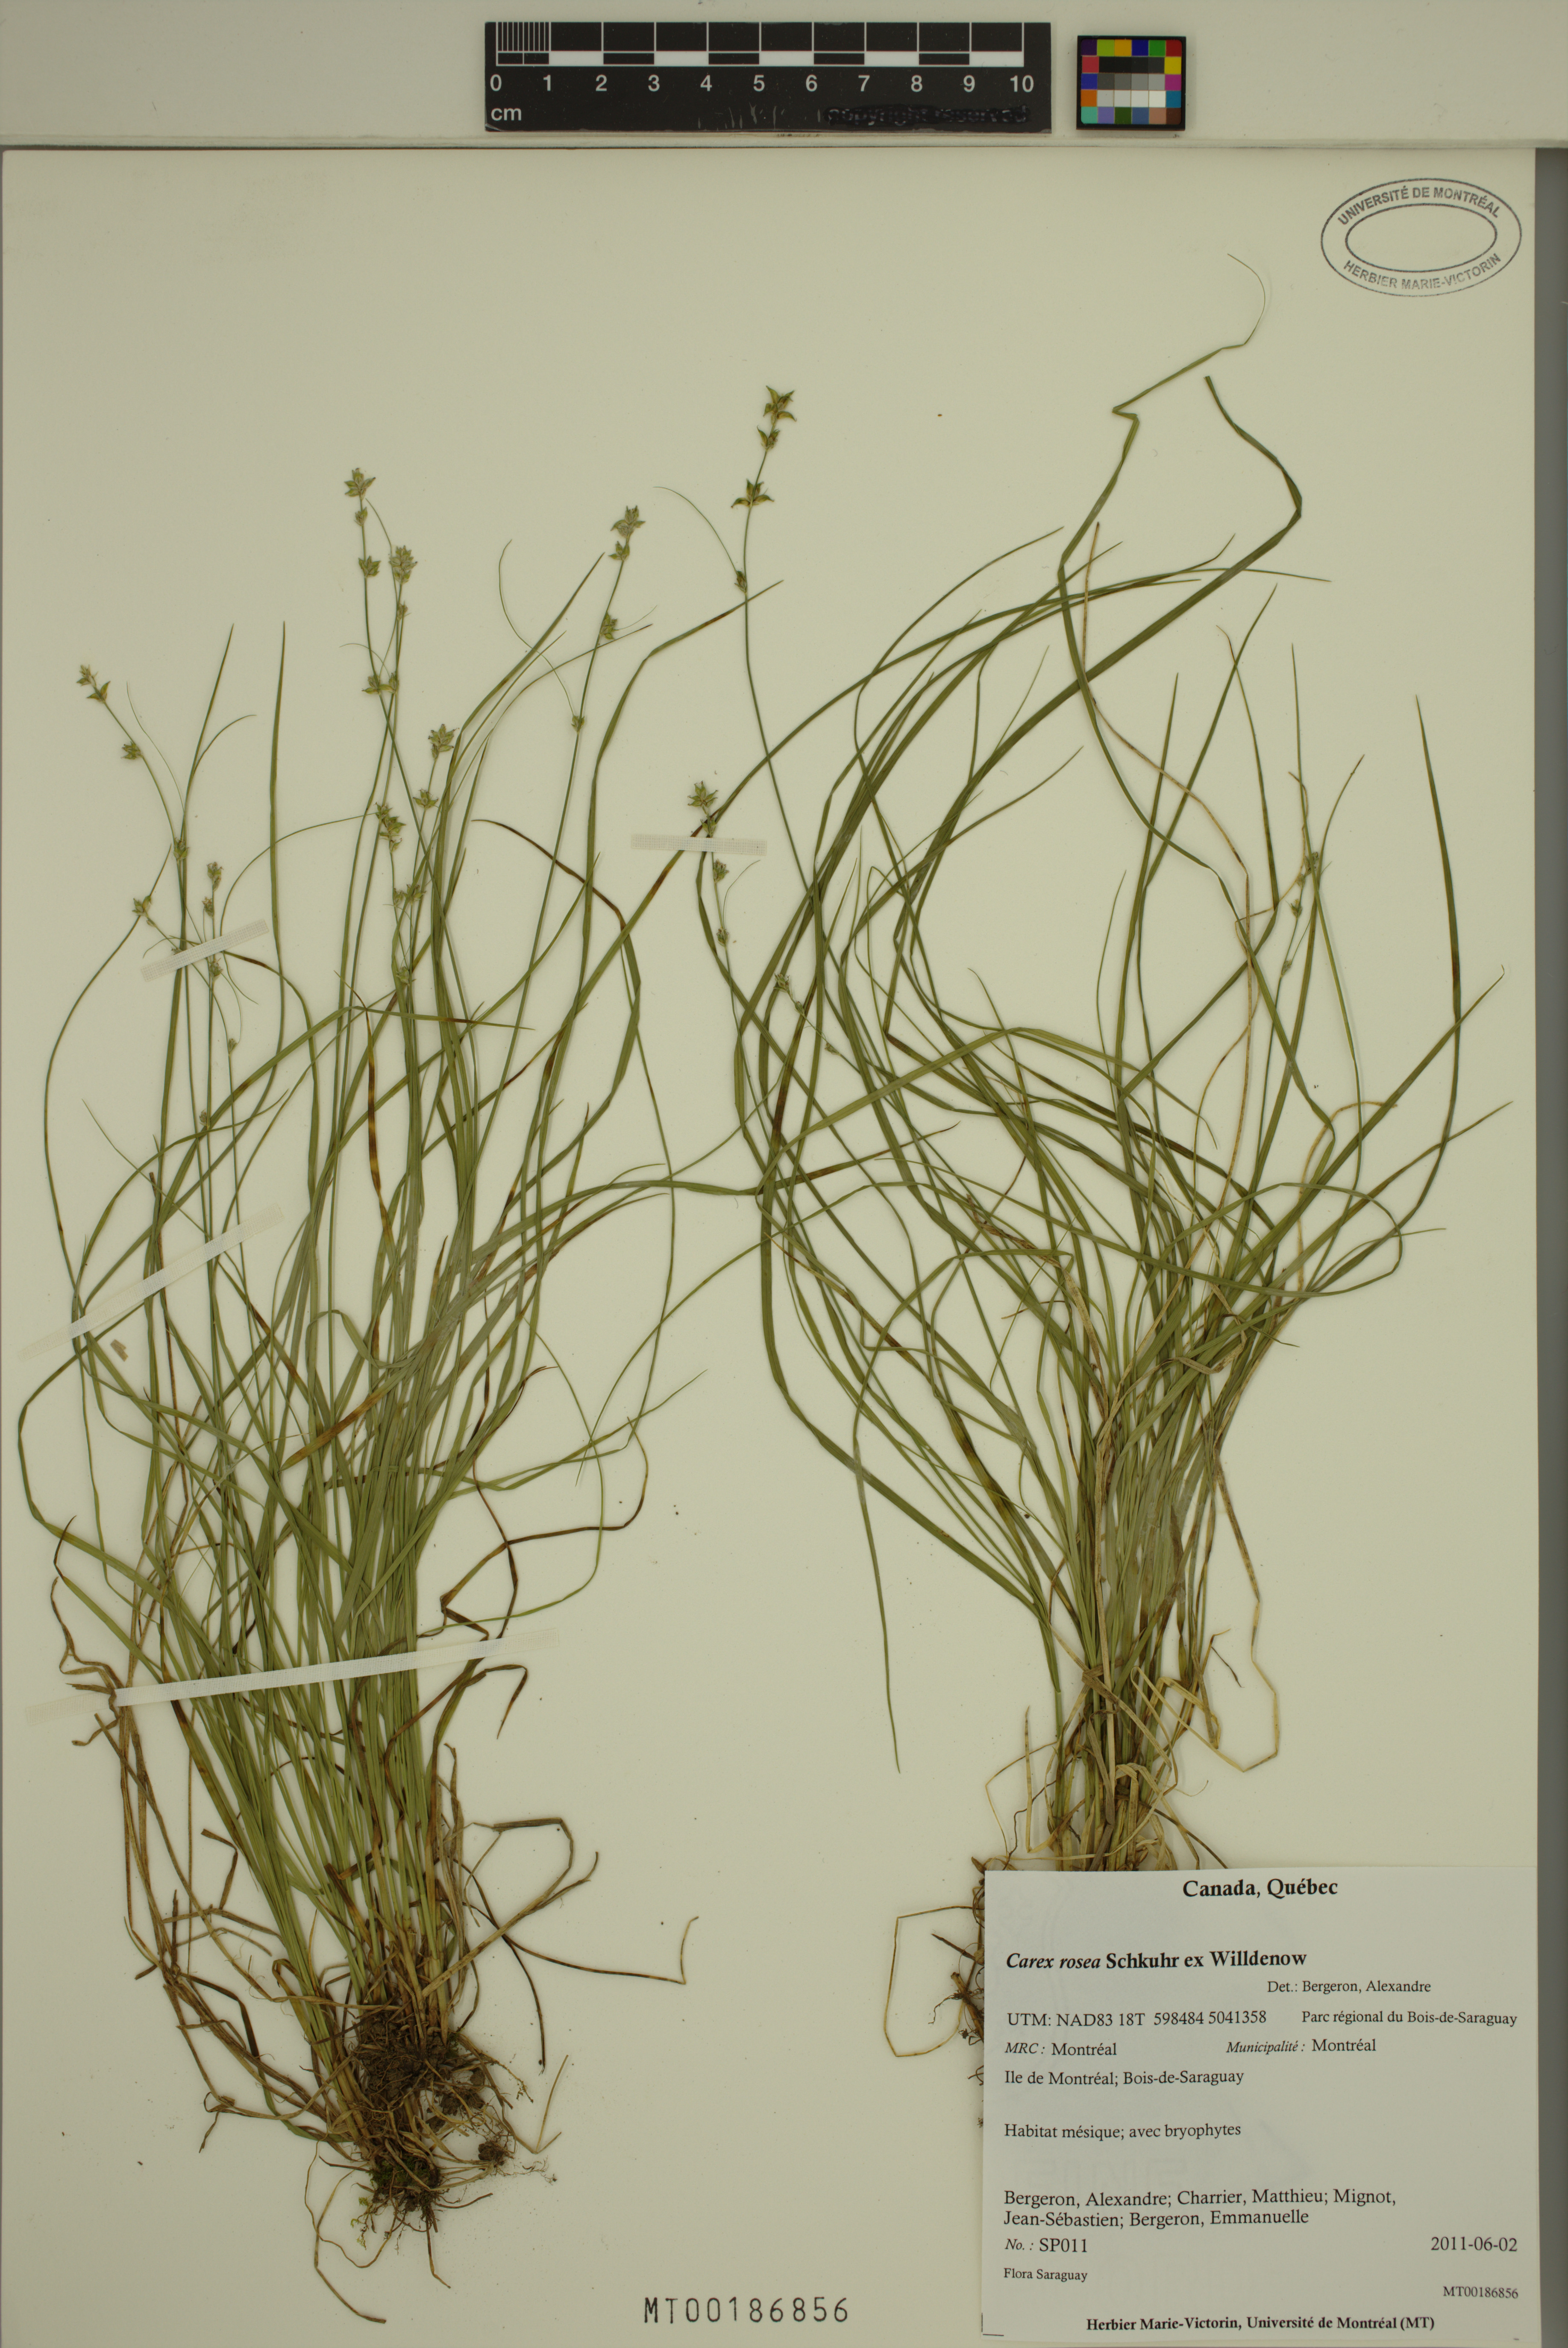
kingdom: Plantae
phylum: Tracheophyta
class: Liliopsida
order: Poales
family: Cyperaceae
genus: Carex
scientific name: Carex rosea
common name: Curly-styled wood sedge
